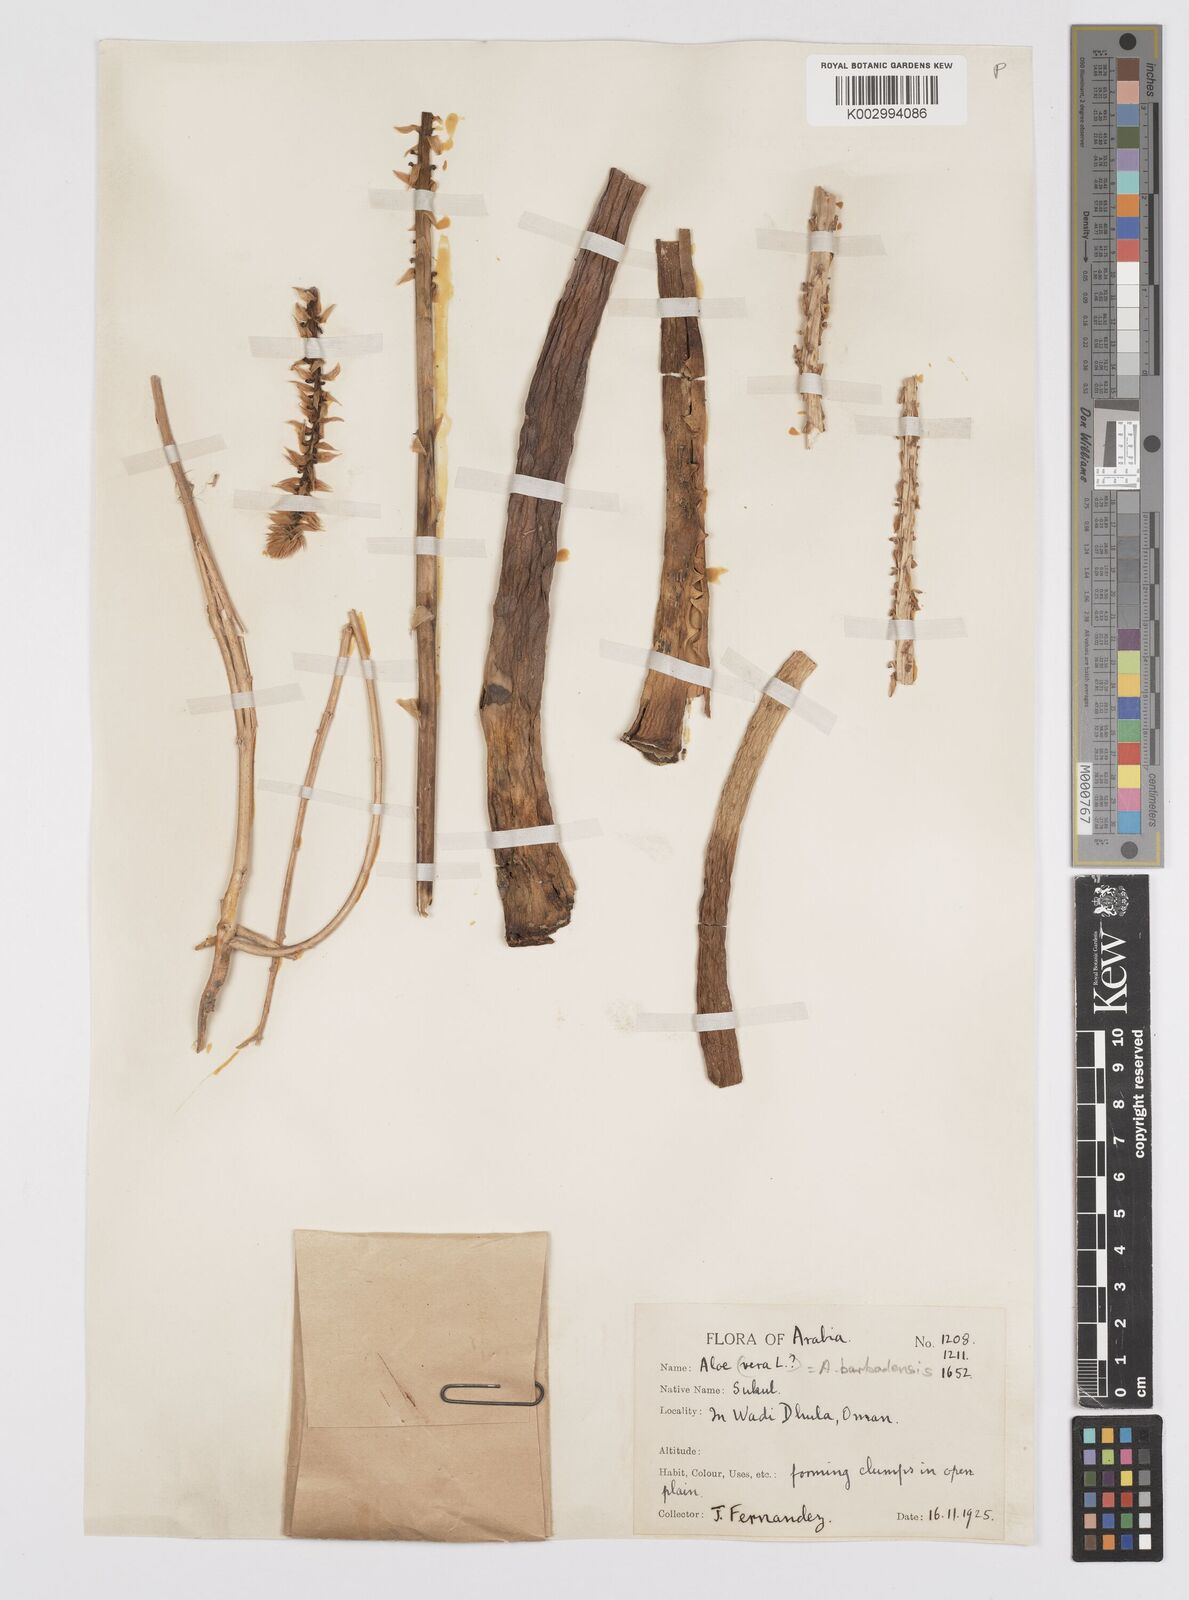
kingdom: Plantae
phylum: Tracheophyta
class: Liliopsida
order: Asparagales
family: Asphodelaceae
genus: Aloe
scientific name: Aloe vera
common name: Barbados aloe
